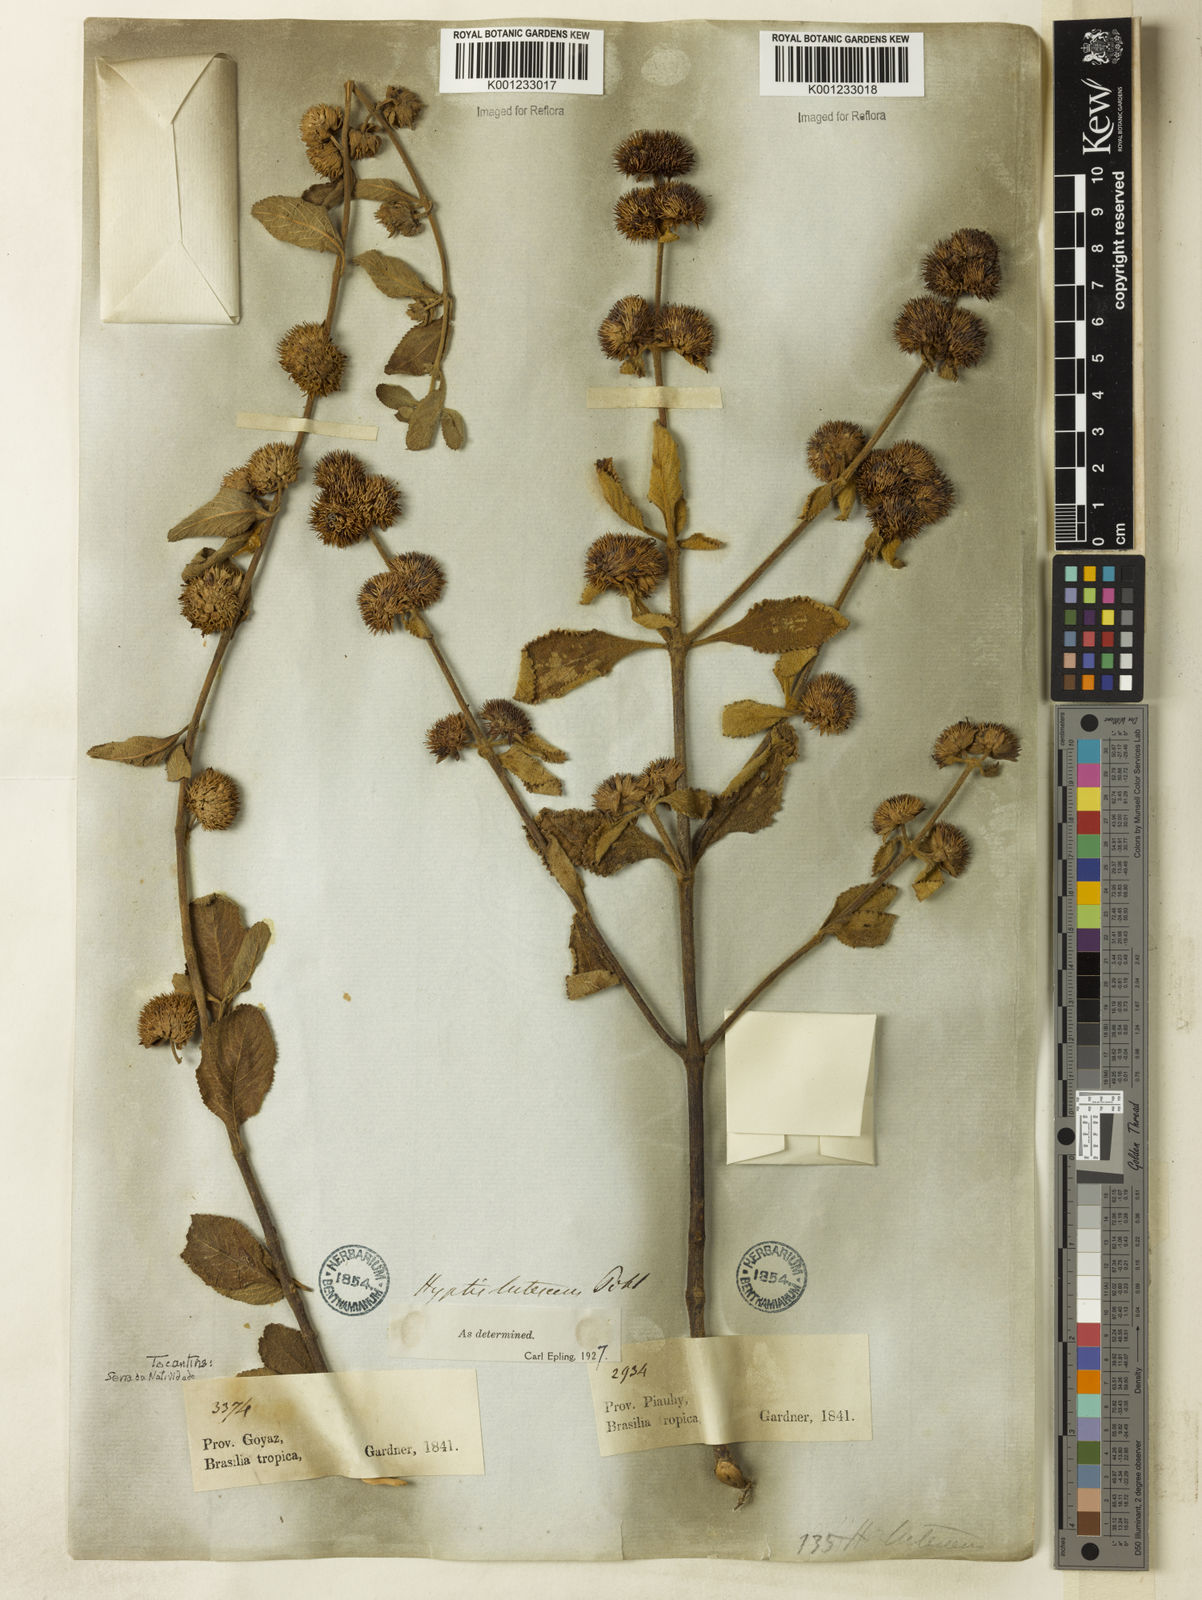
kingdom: Plantae
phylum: Tracheophyta
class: Magnoliopsida
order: Lamiales
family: Lamiaceae
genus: Hyptis
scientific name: Hyptis lutescens
